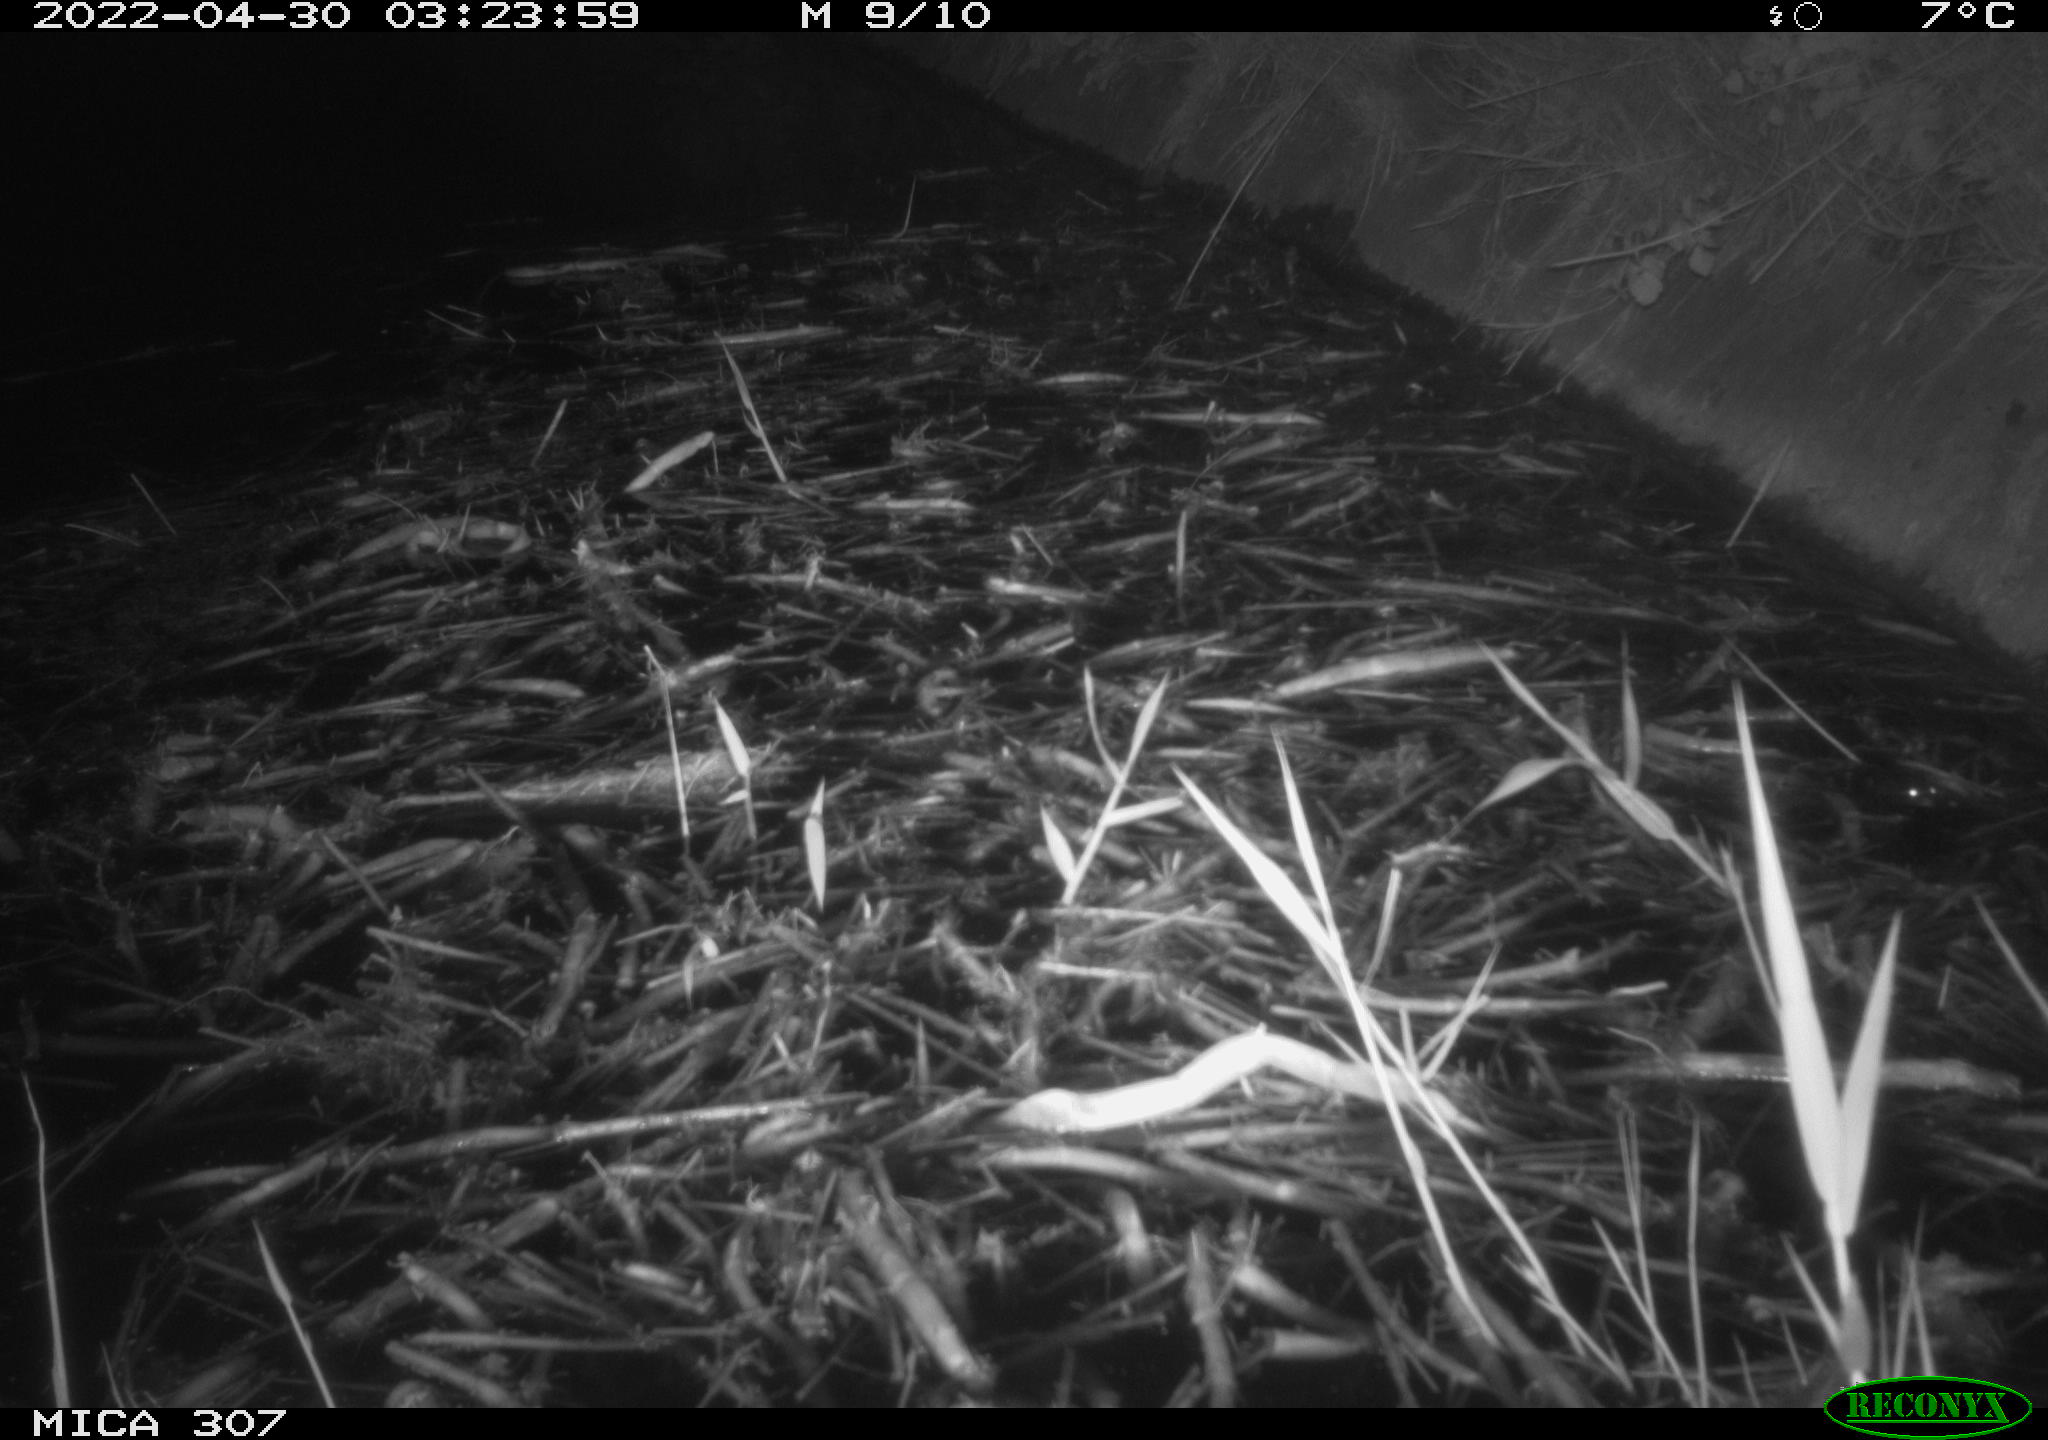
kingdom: Animalia
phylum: Chordata
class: Aves
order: Anseriformes
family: Anatidae
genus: Anas
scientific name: Anas platyrhynchos
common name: Mallard
